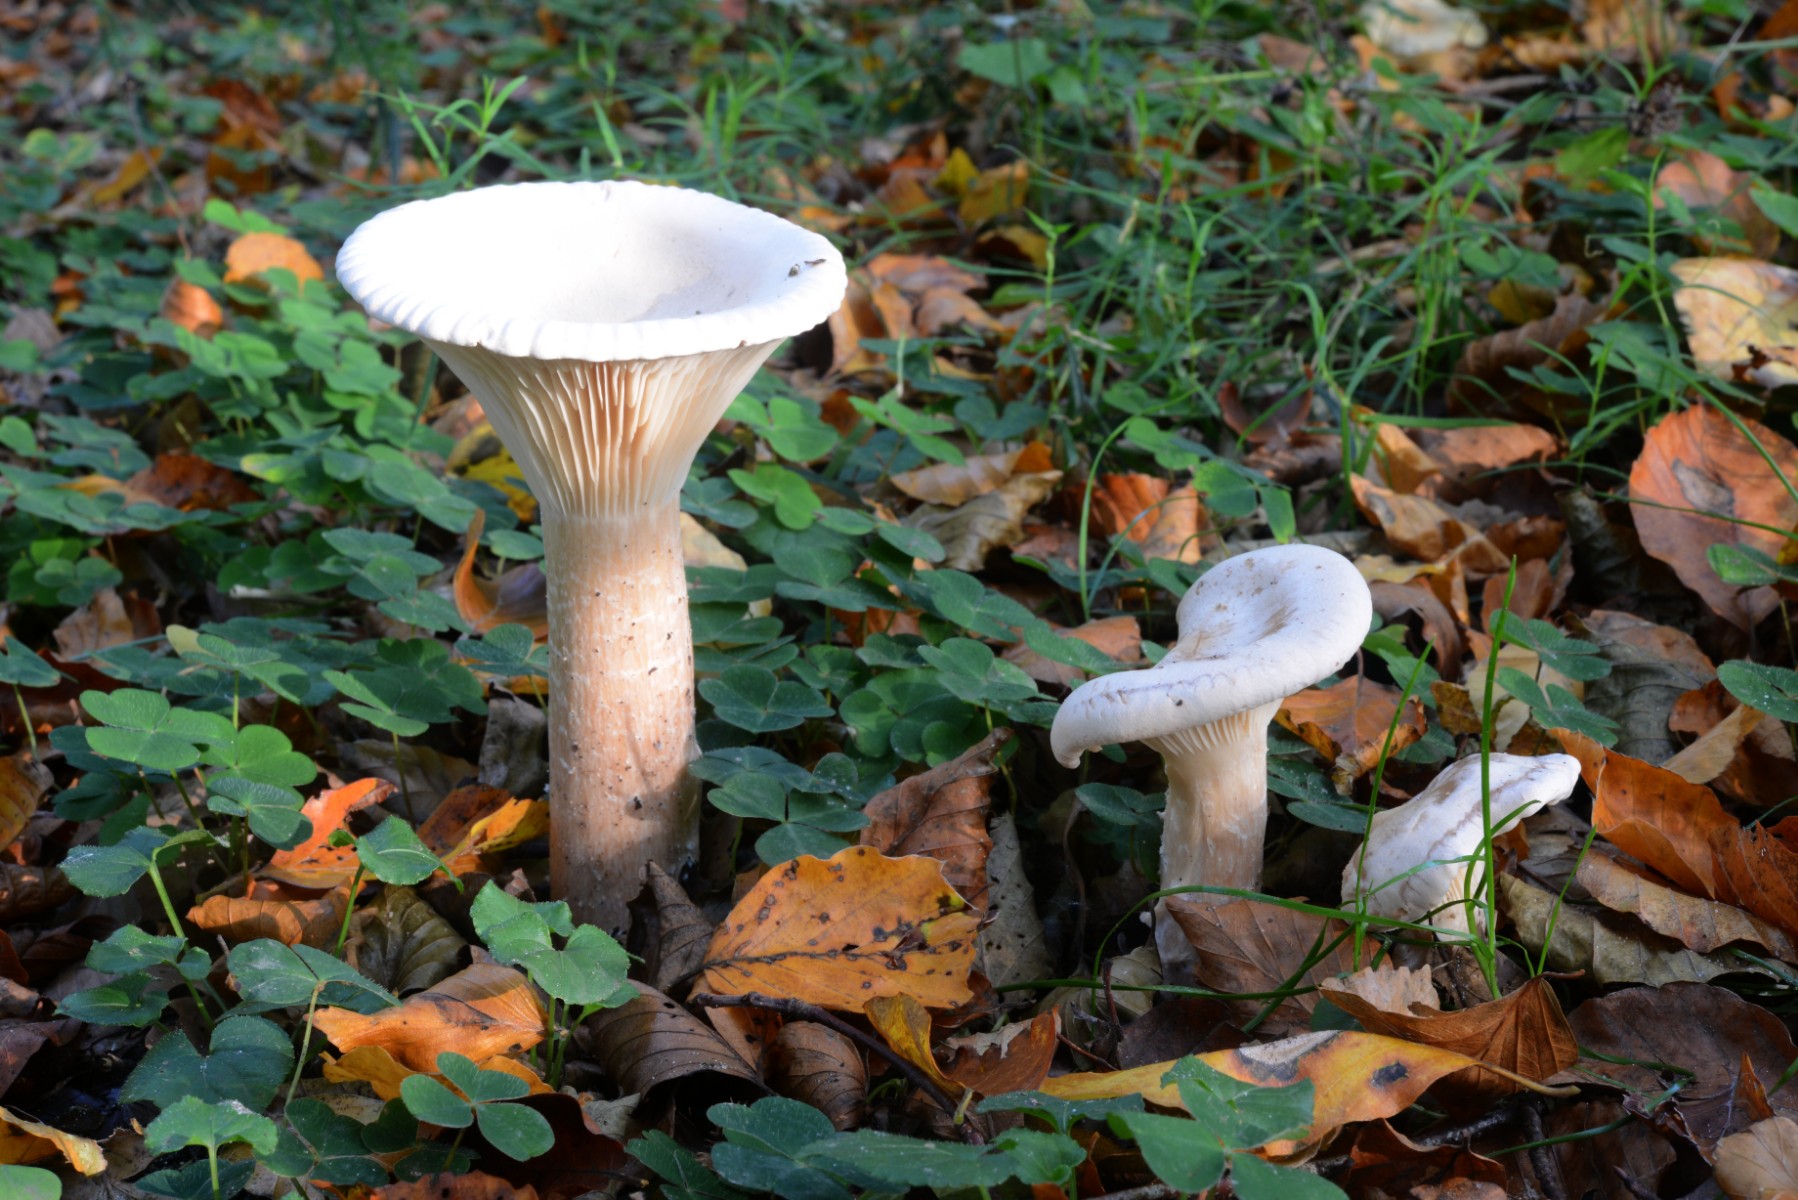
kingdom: Fungi
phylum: Basidiomycota
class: Agaricomycetes
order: Agaricales
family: Tricholomataceae
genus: Infundibulicybe
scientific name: Infundibulicybe geotropa
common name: stor tragthat
